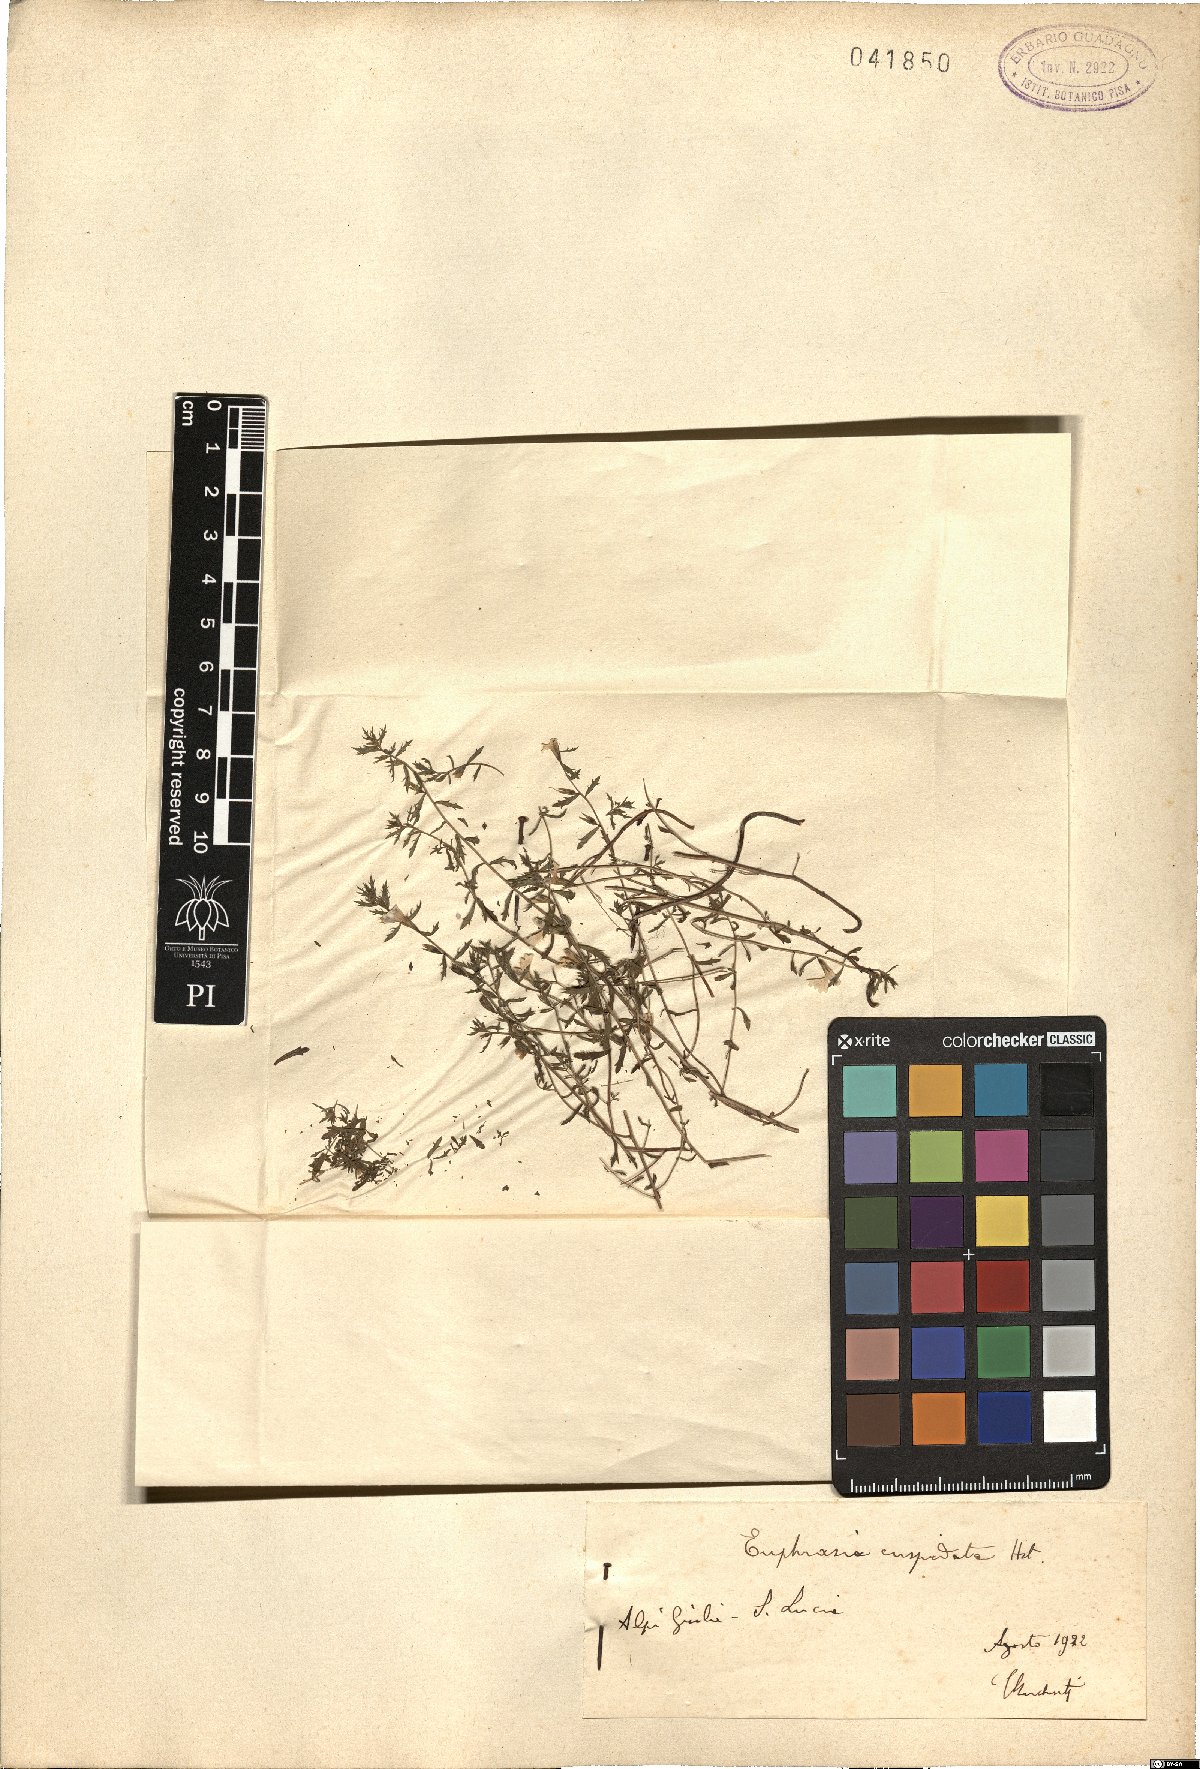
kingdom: Plantae
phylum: Tracheophyta
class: Magnoliopsida
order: Malpighiales
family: Euphorbiaceae
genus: Euphorbia
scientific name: Euphorbia striata
